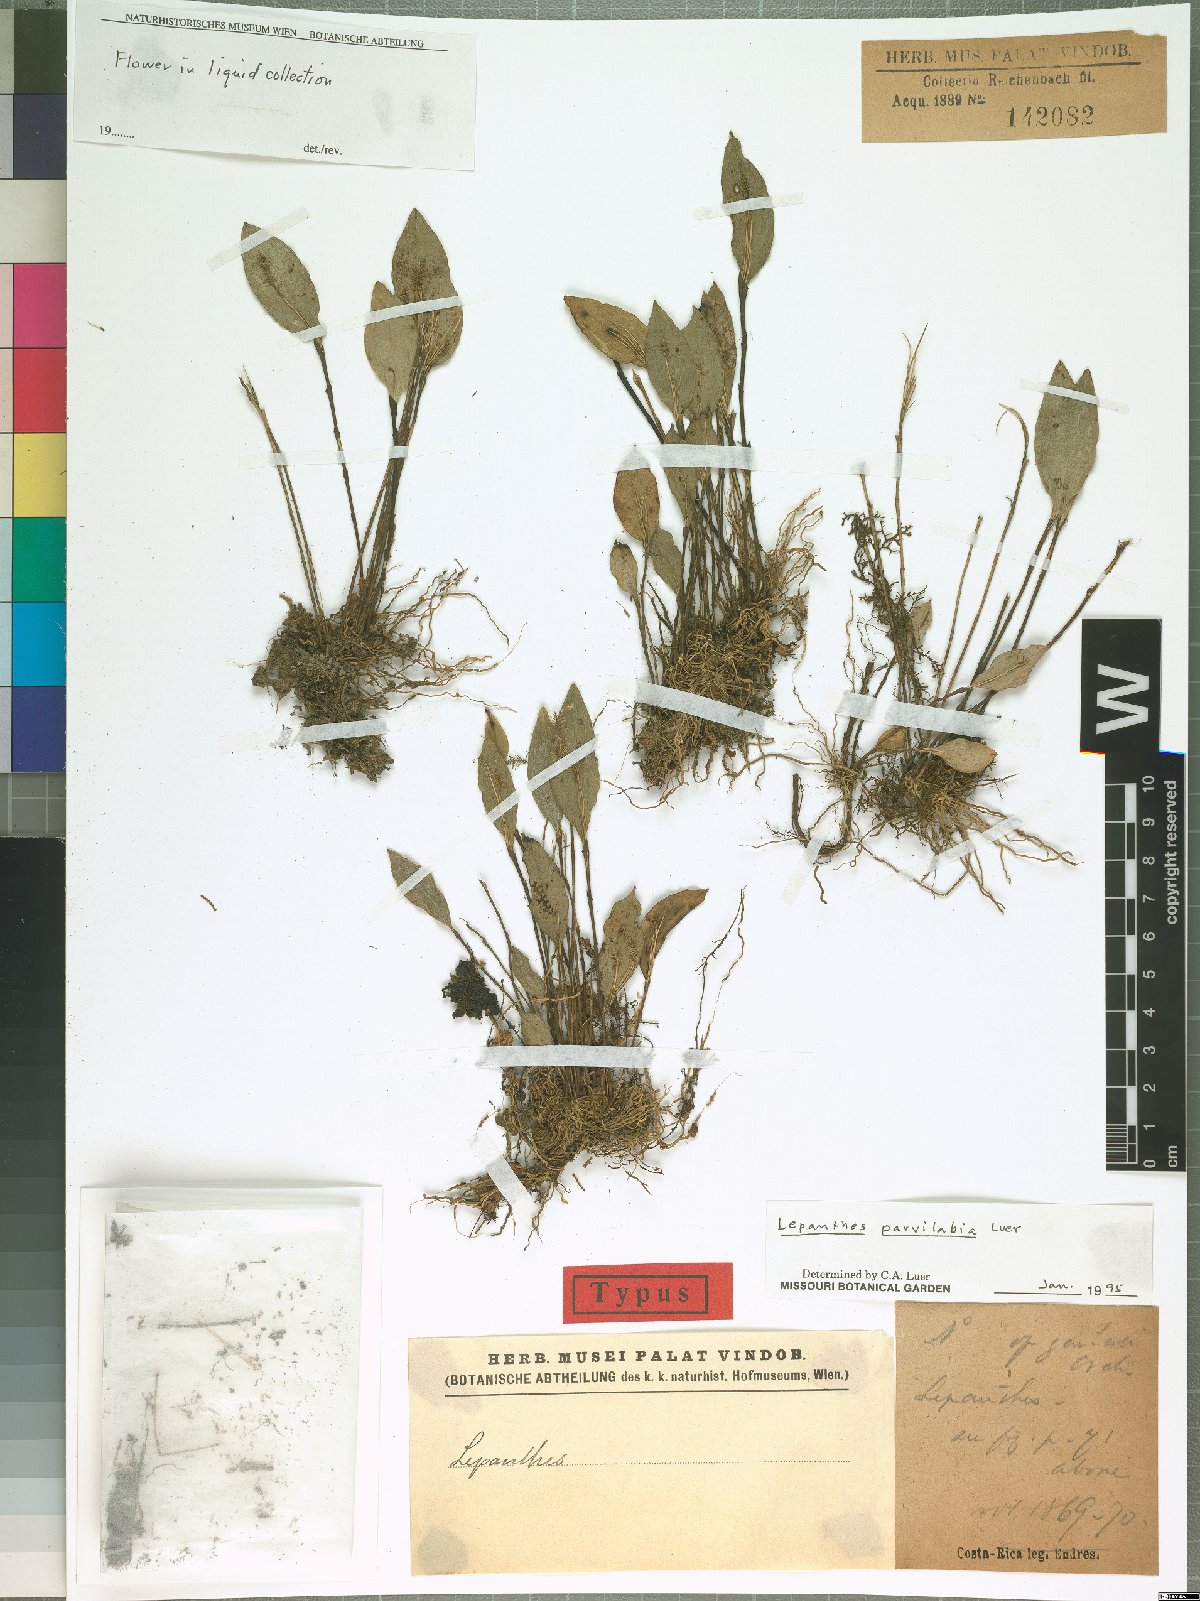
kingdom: Plantae
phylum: Tracheophyta
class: Liliopsida
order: Asparagales
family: Orchidaceae
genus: Lepanthes
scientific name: Lepanthes parvilabia
